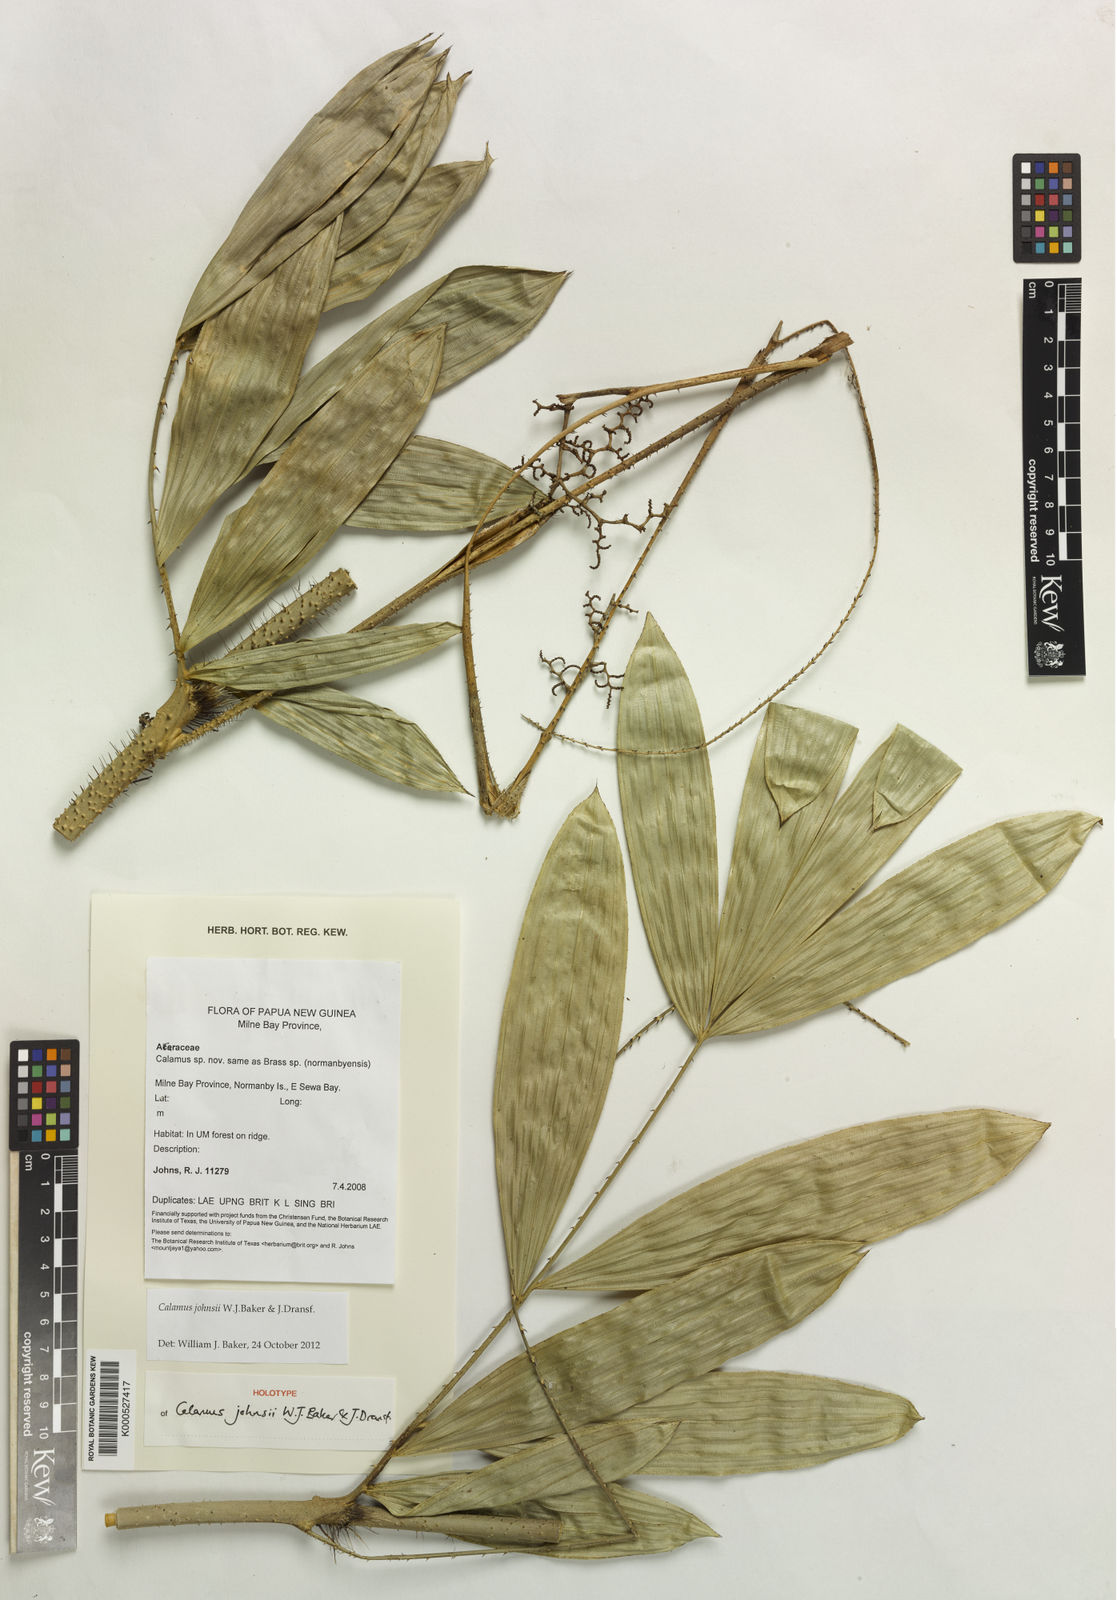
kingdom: Plantae
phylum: Tracheophyta
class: Liliopsida
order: Arecales
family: Arecaceae
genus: Calamus
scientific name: Calamus johnsii
